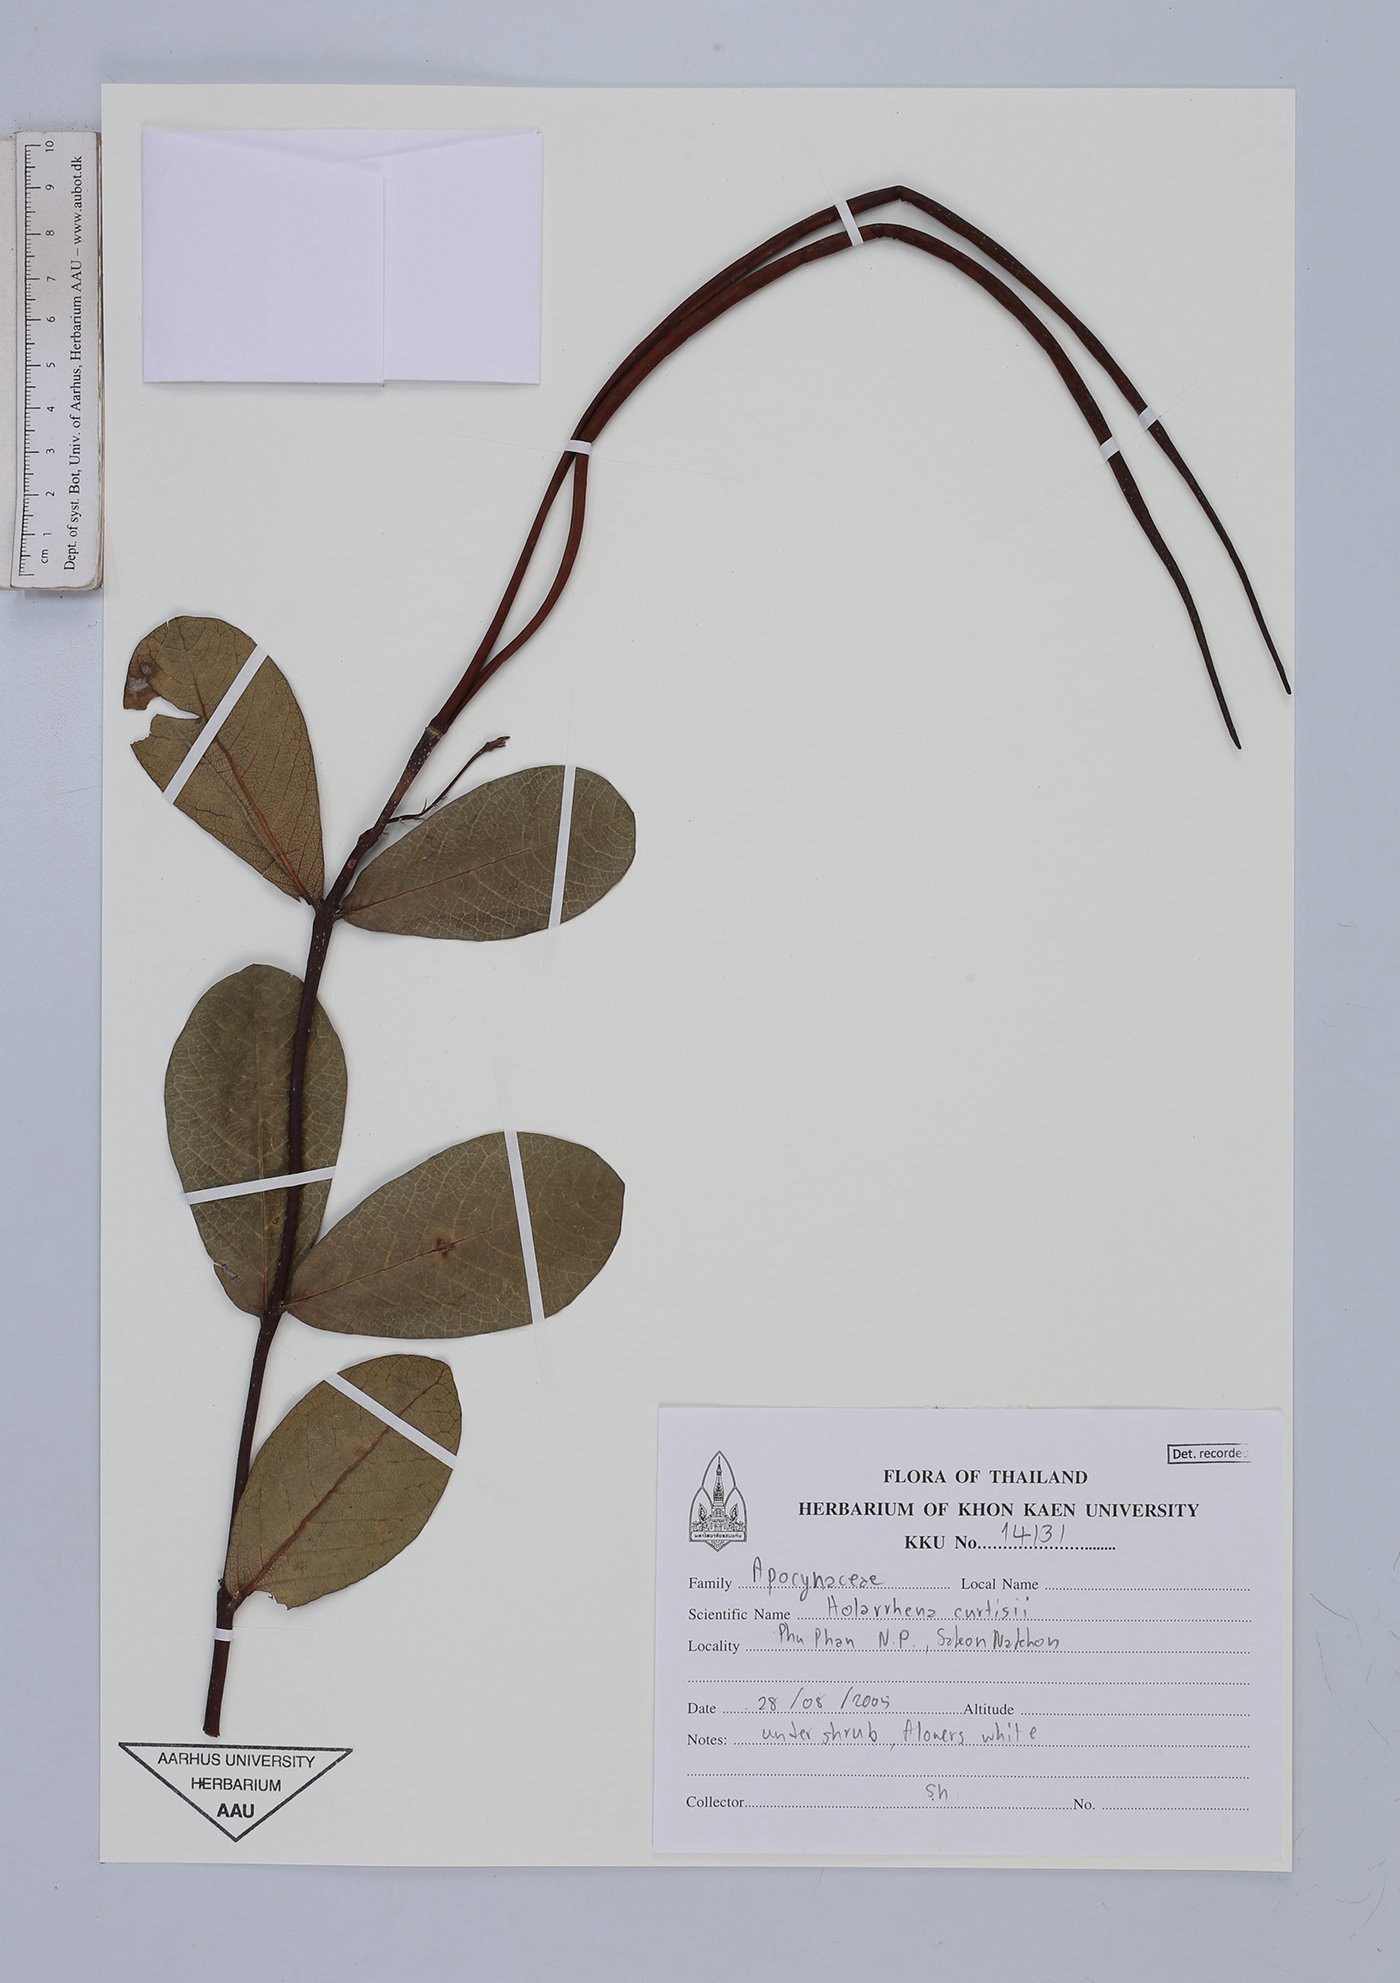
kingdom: Plantae
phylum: Tracheophyta
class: Magnoliopsida
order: Gentianales
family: Apocynaceae
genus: Holarrhena
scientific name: Holarrhena curtisii
